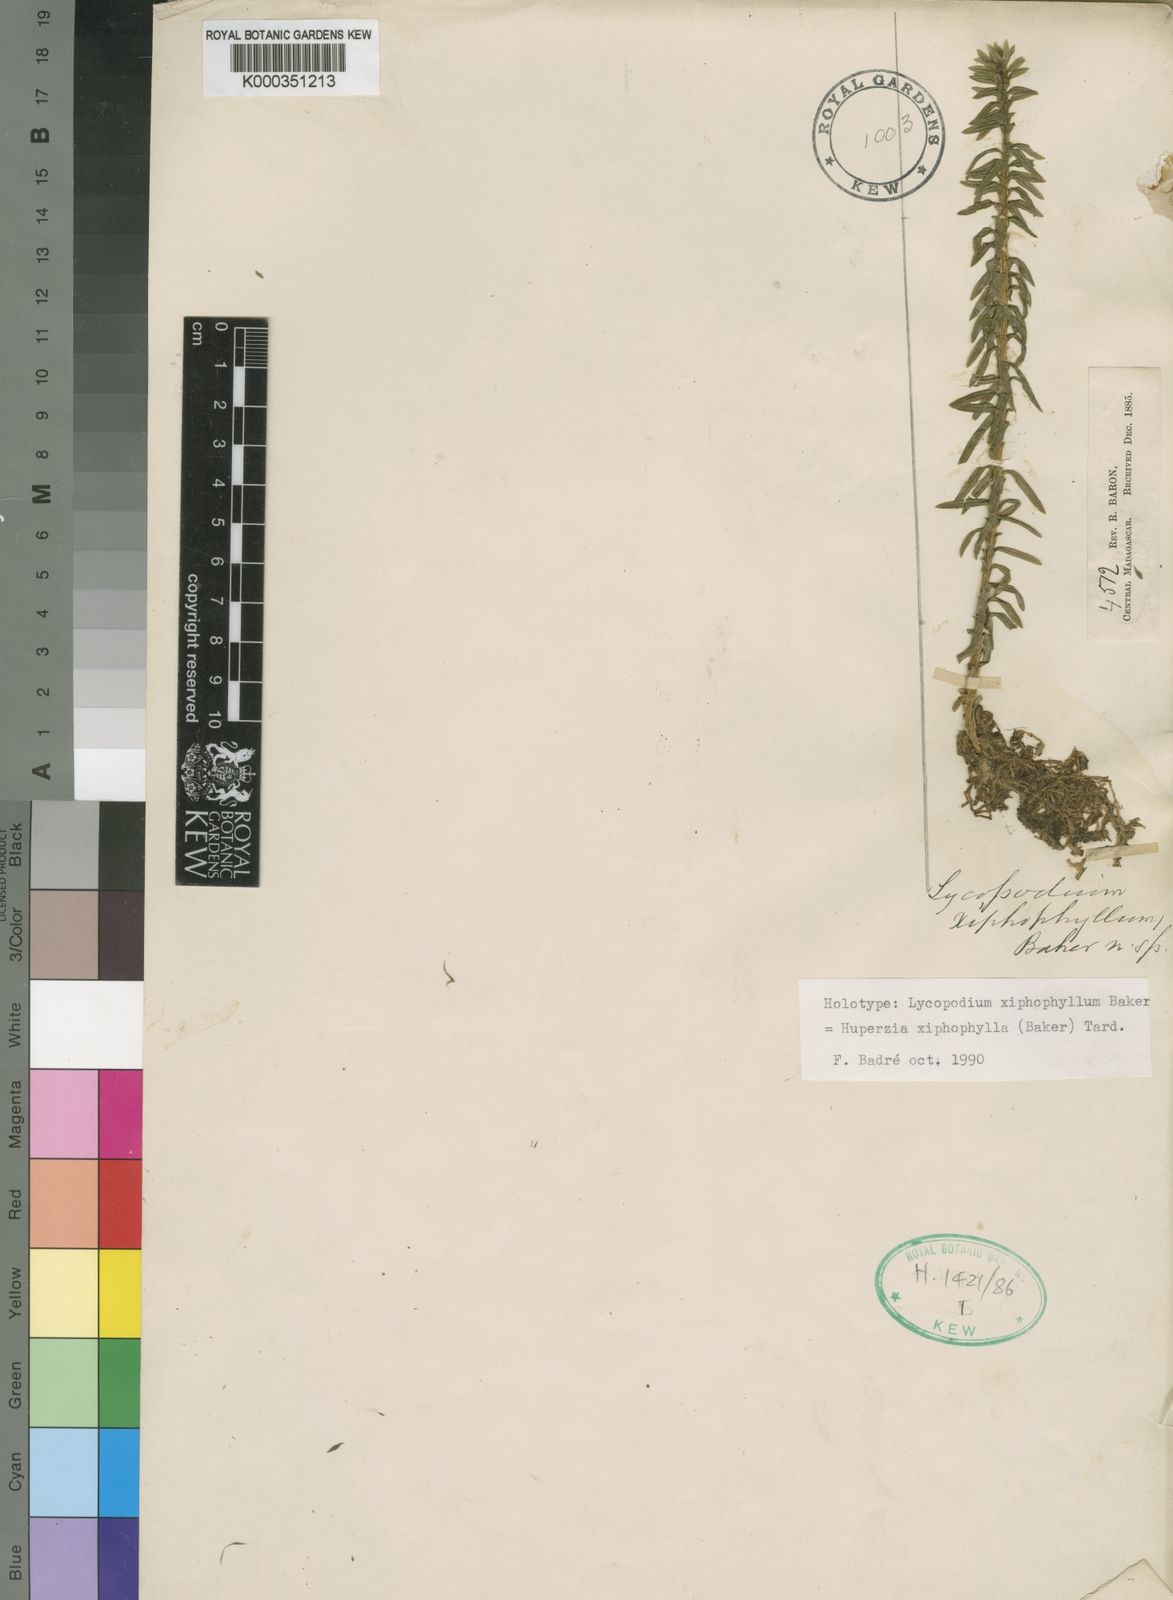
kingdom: Plantae
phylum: Tracheophyta
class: Lycopodiopsida
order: Lycopodiales
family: Lycopodiaceae
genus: Phlegmariurus
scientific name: Phlegmariurus xiphophyllus
